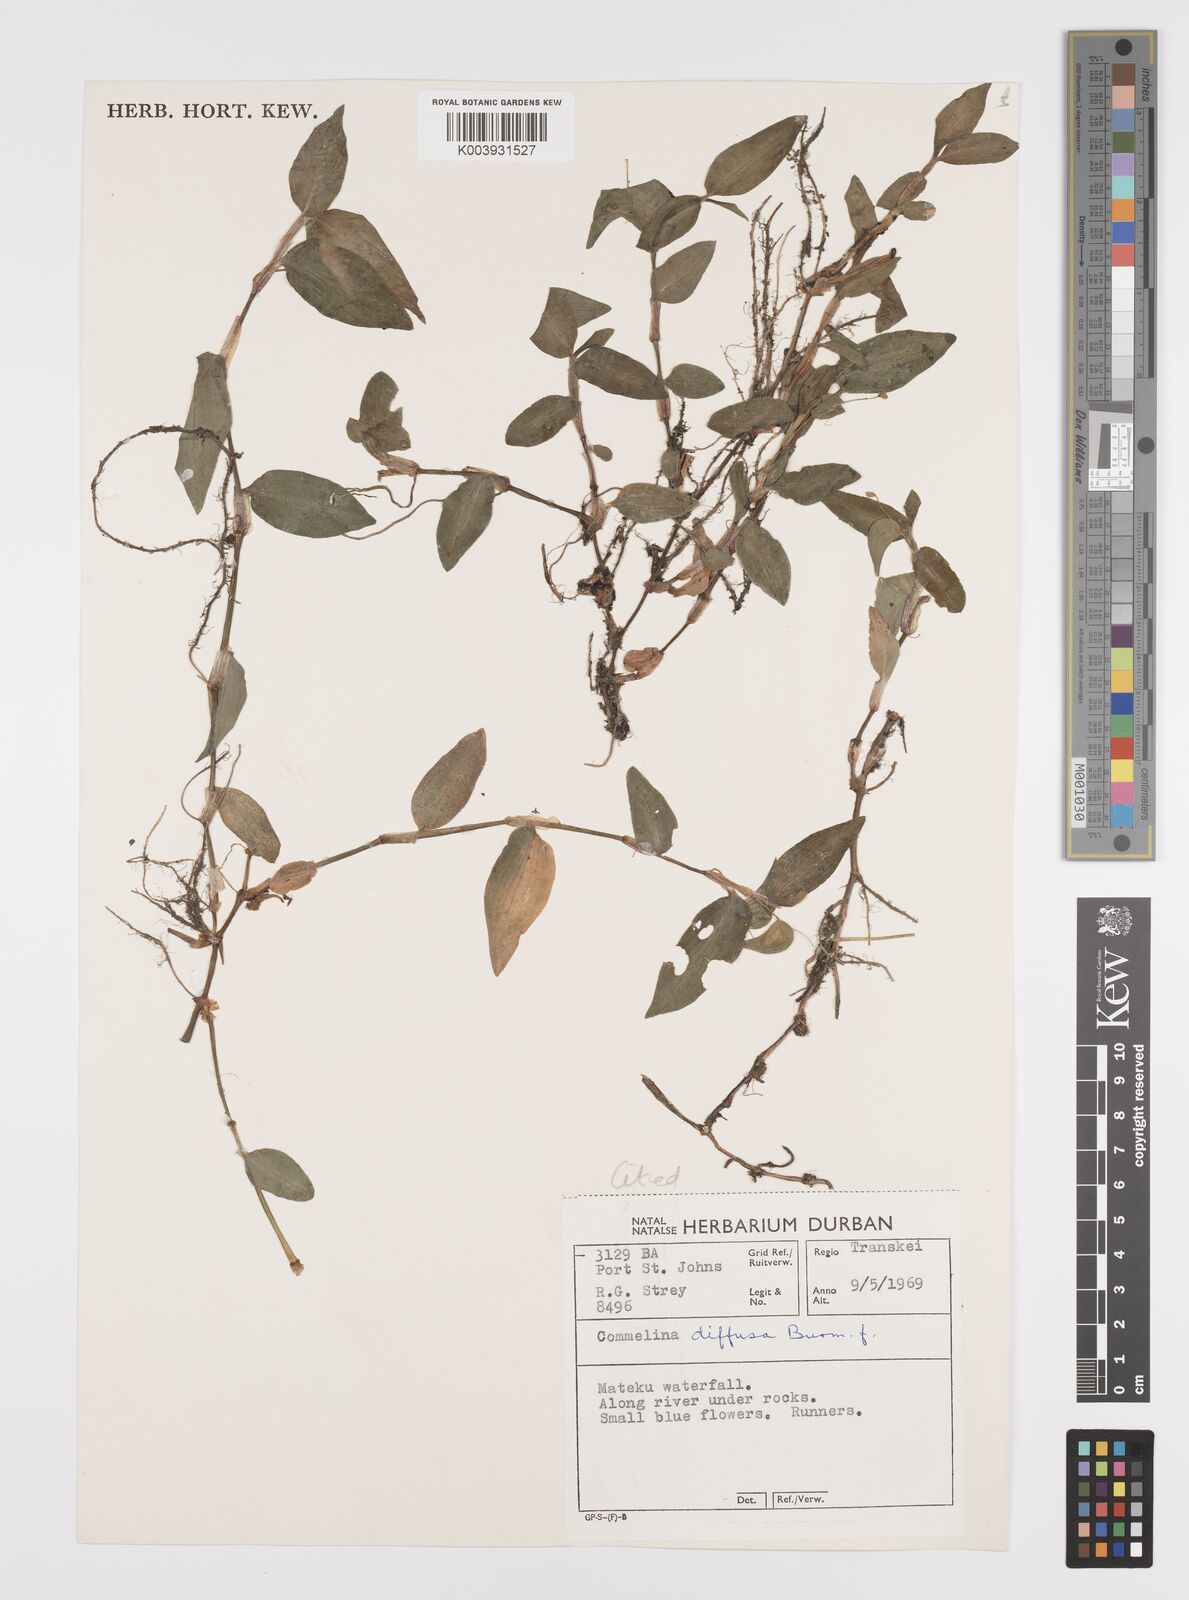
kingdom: Plantae
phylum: Tracheophyta
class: Liliopsida
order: Commelinales
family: Commelinaceae
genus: Commelina
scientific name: Commelina diffusa
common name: Climbing dayflower
